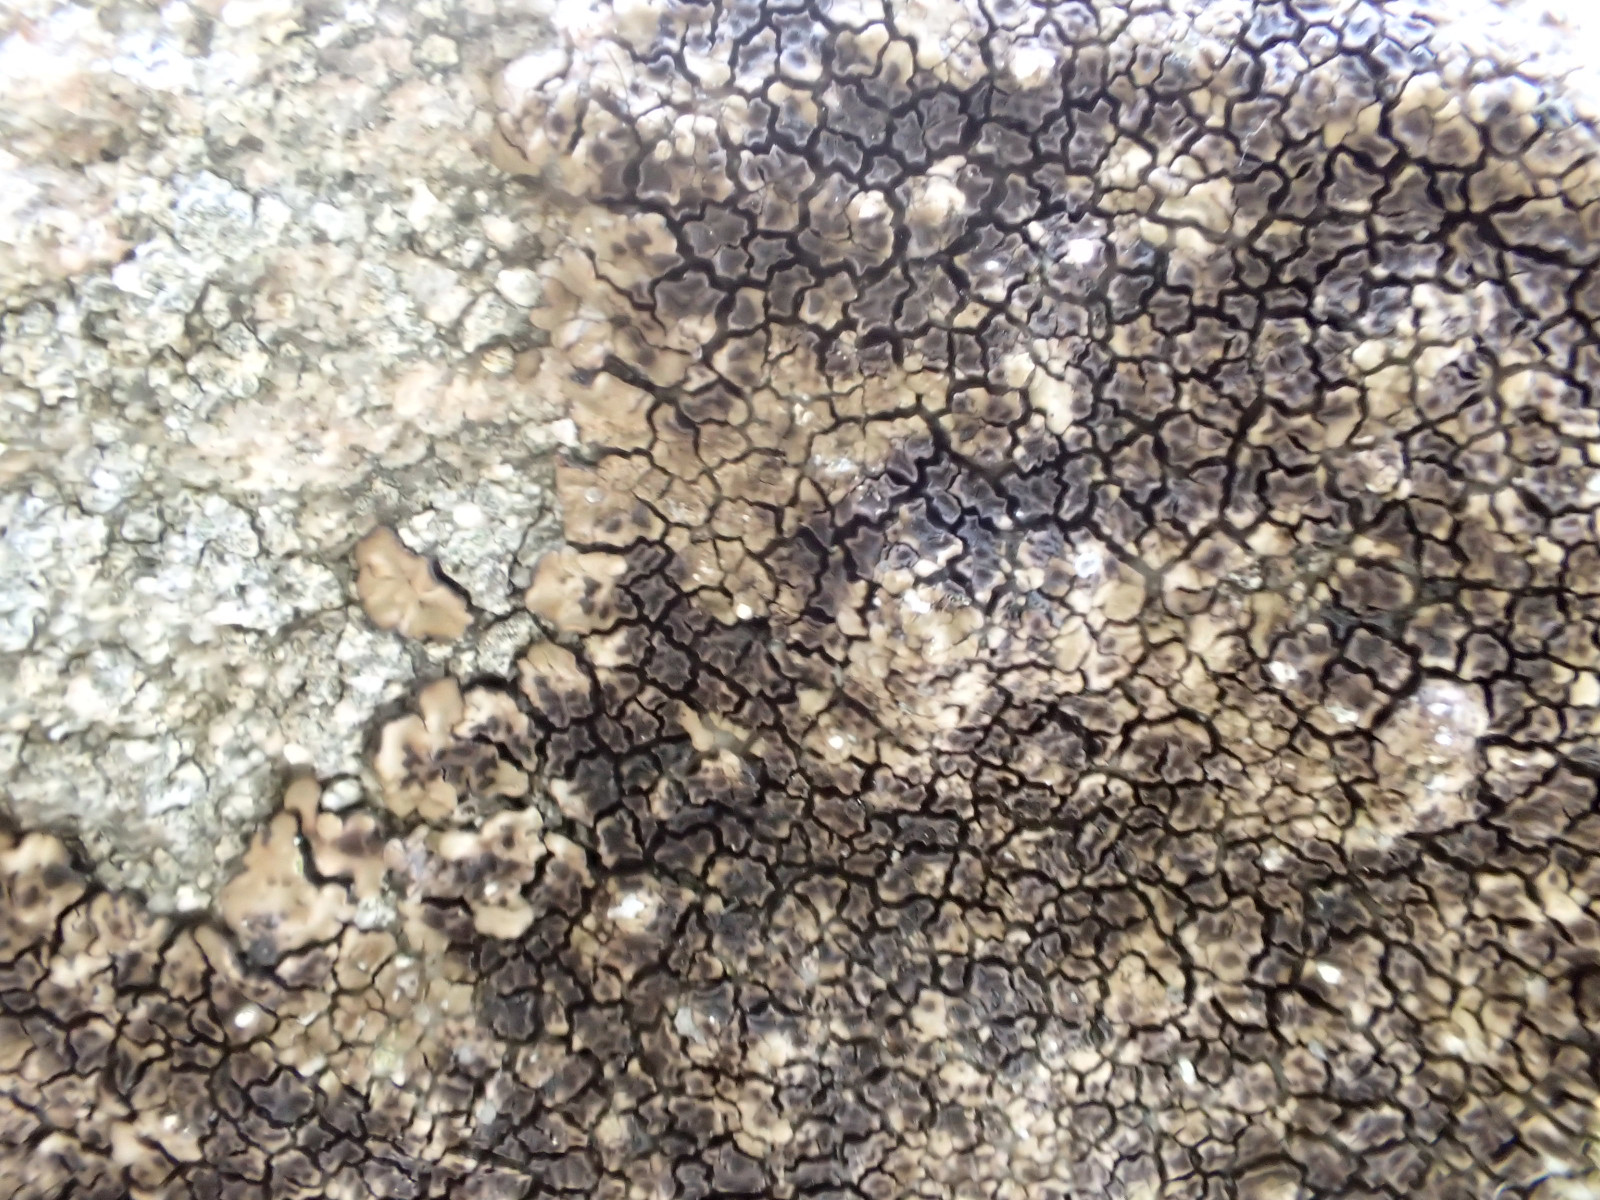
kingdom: Fungi
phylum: Ascomycota
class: Lecanoromycetes
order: Acarosporales
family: Acarosporaceae
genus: Acarospora
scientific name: Acarospora fuscata
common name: brun småsporelav
